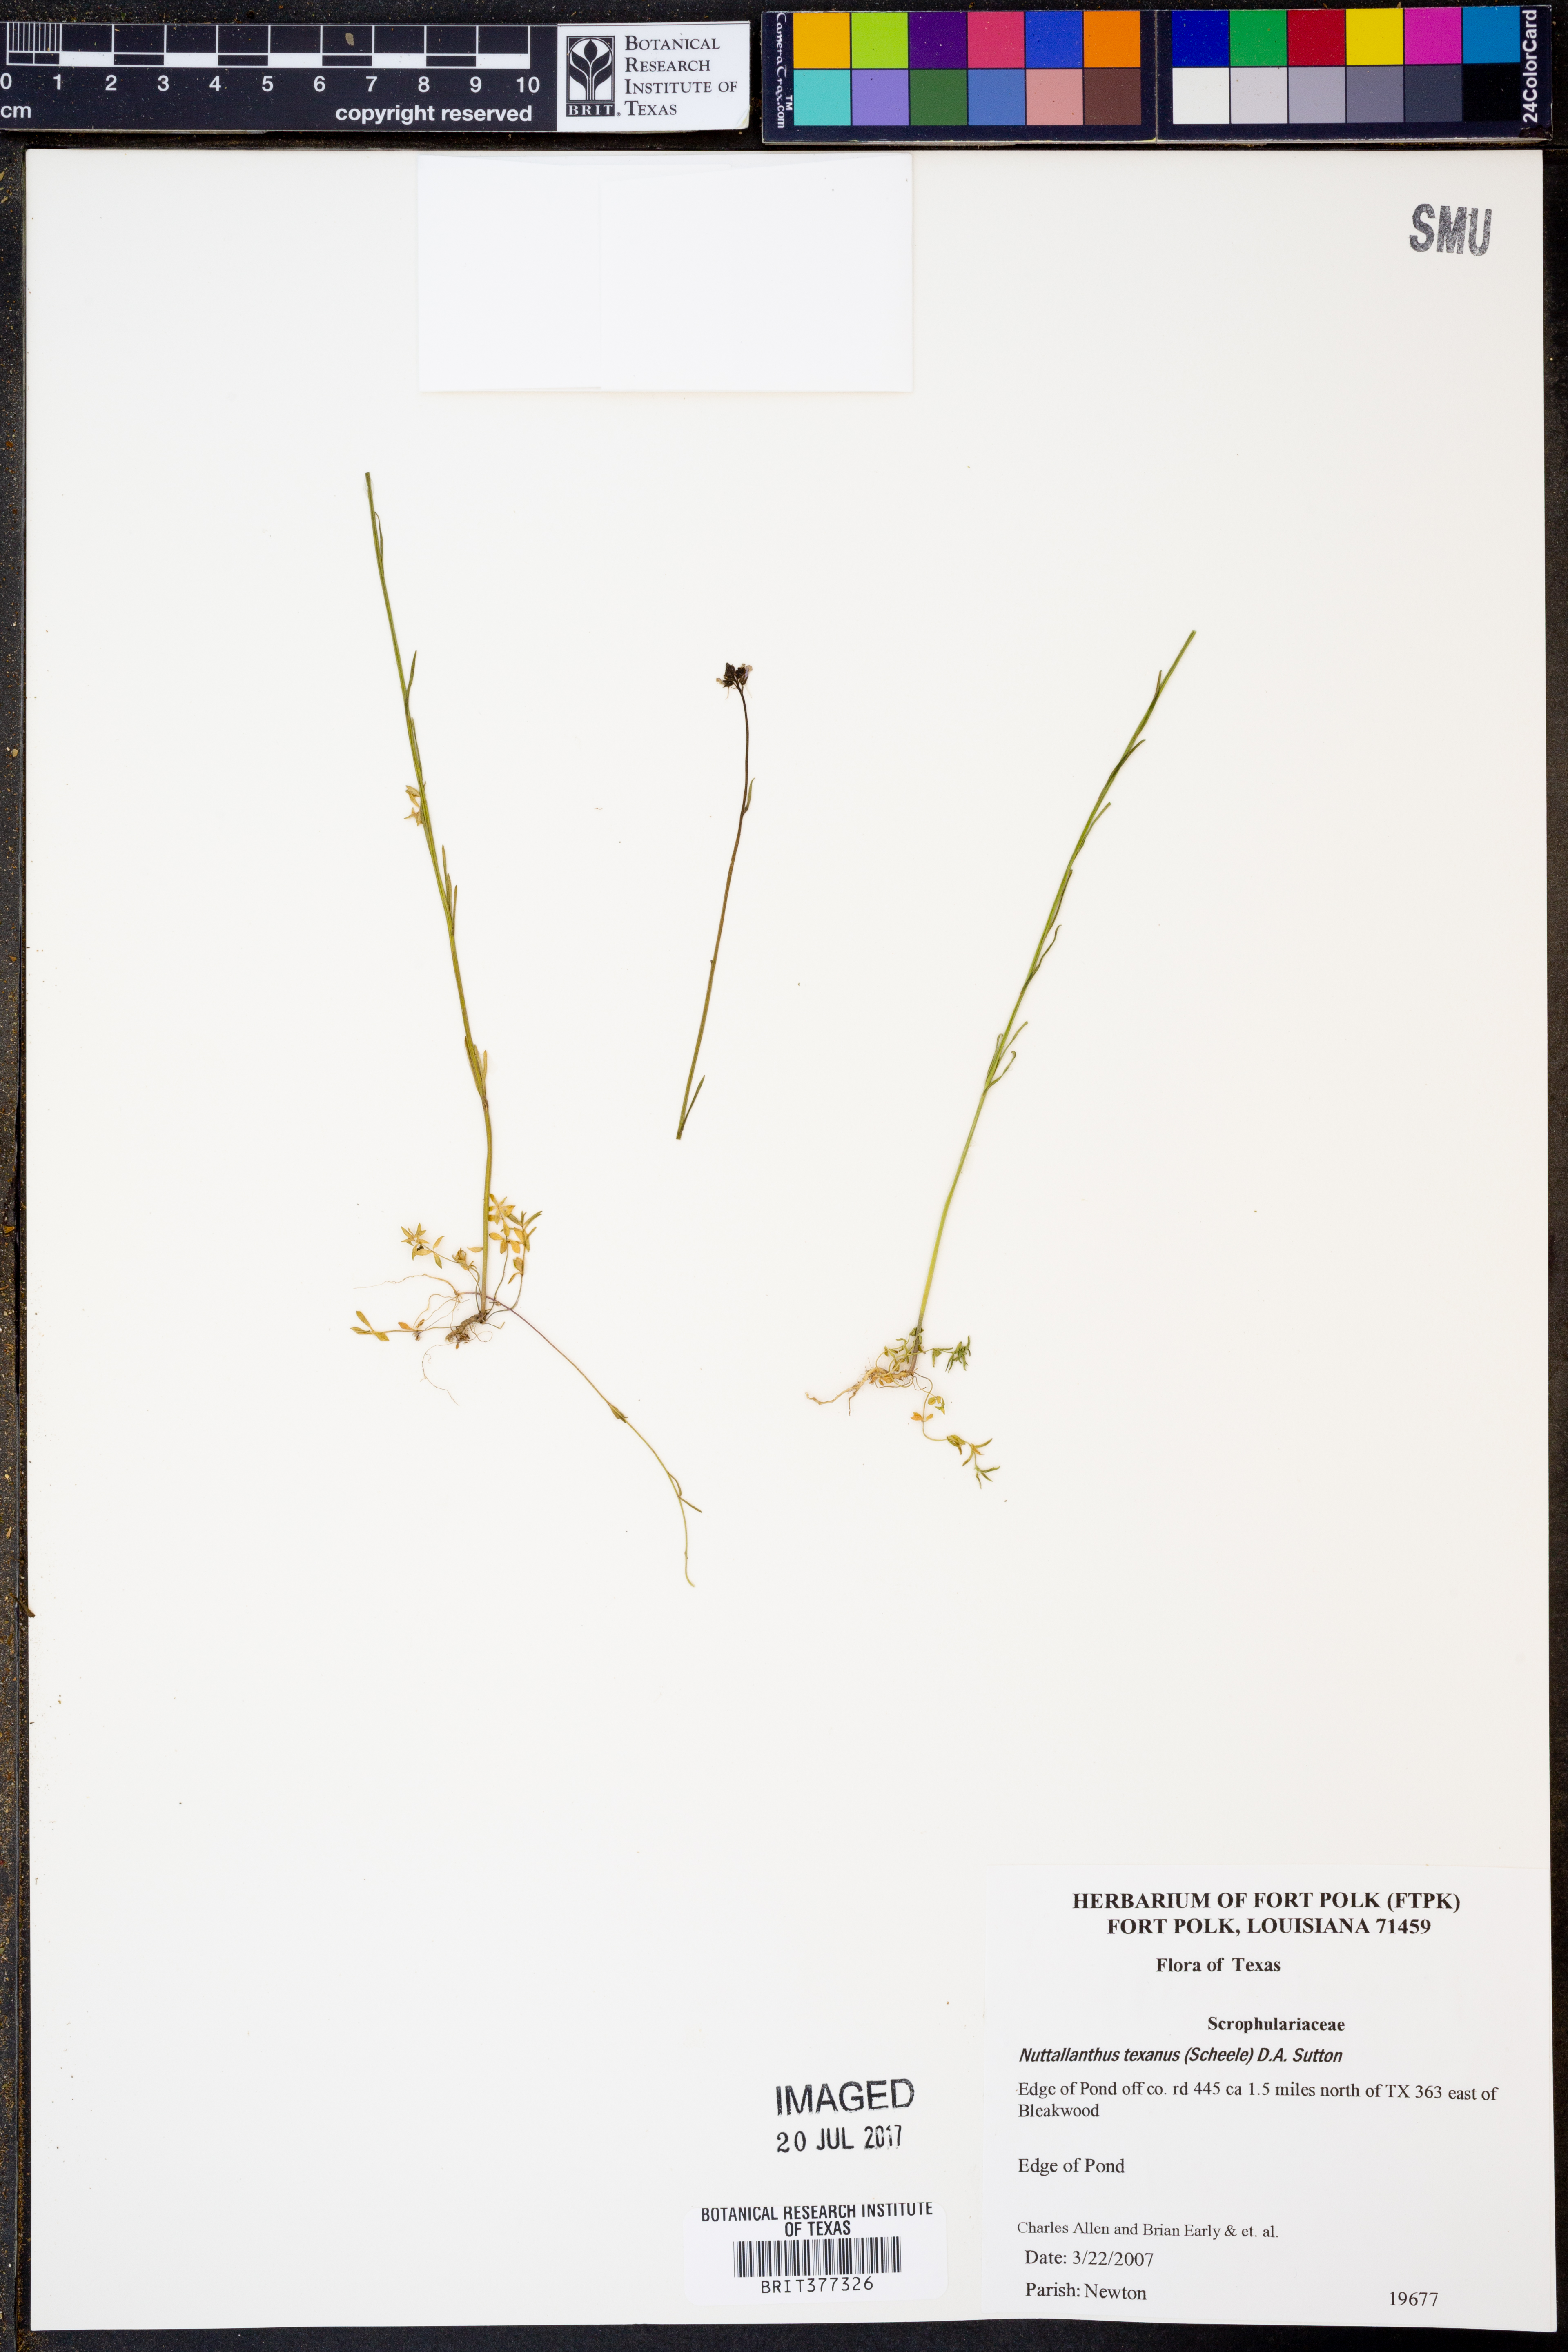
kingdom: Plantae
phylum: Tracheophyta
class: Magnoliopsida
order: Lamiales
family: Plantaginaceae
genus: Nuttallanthus
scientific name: Nuttallanthus texanus
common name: Texas toadflax
